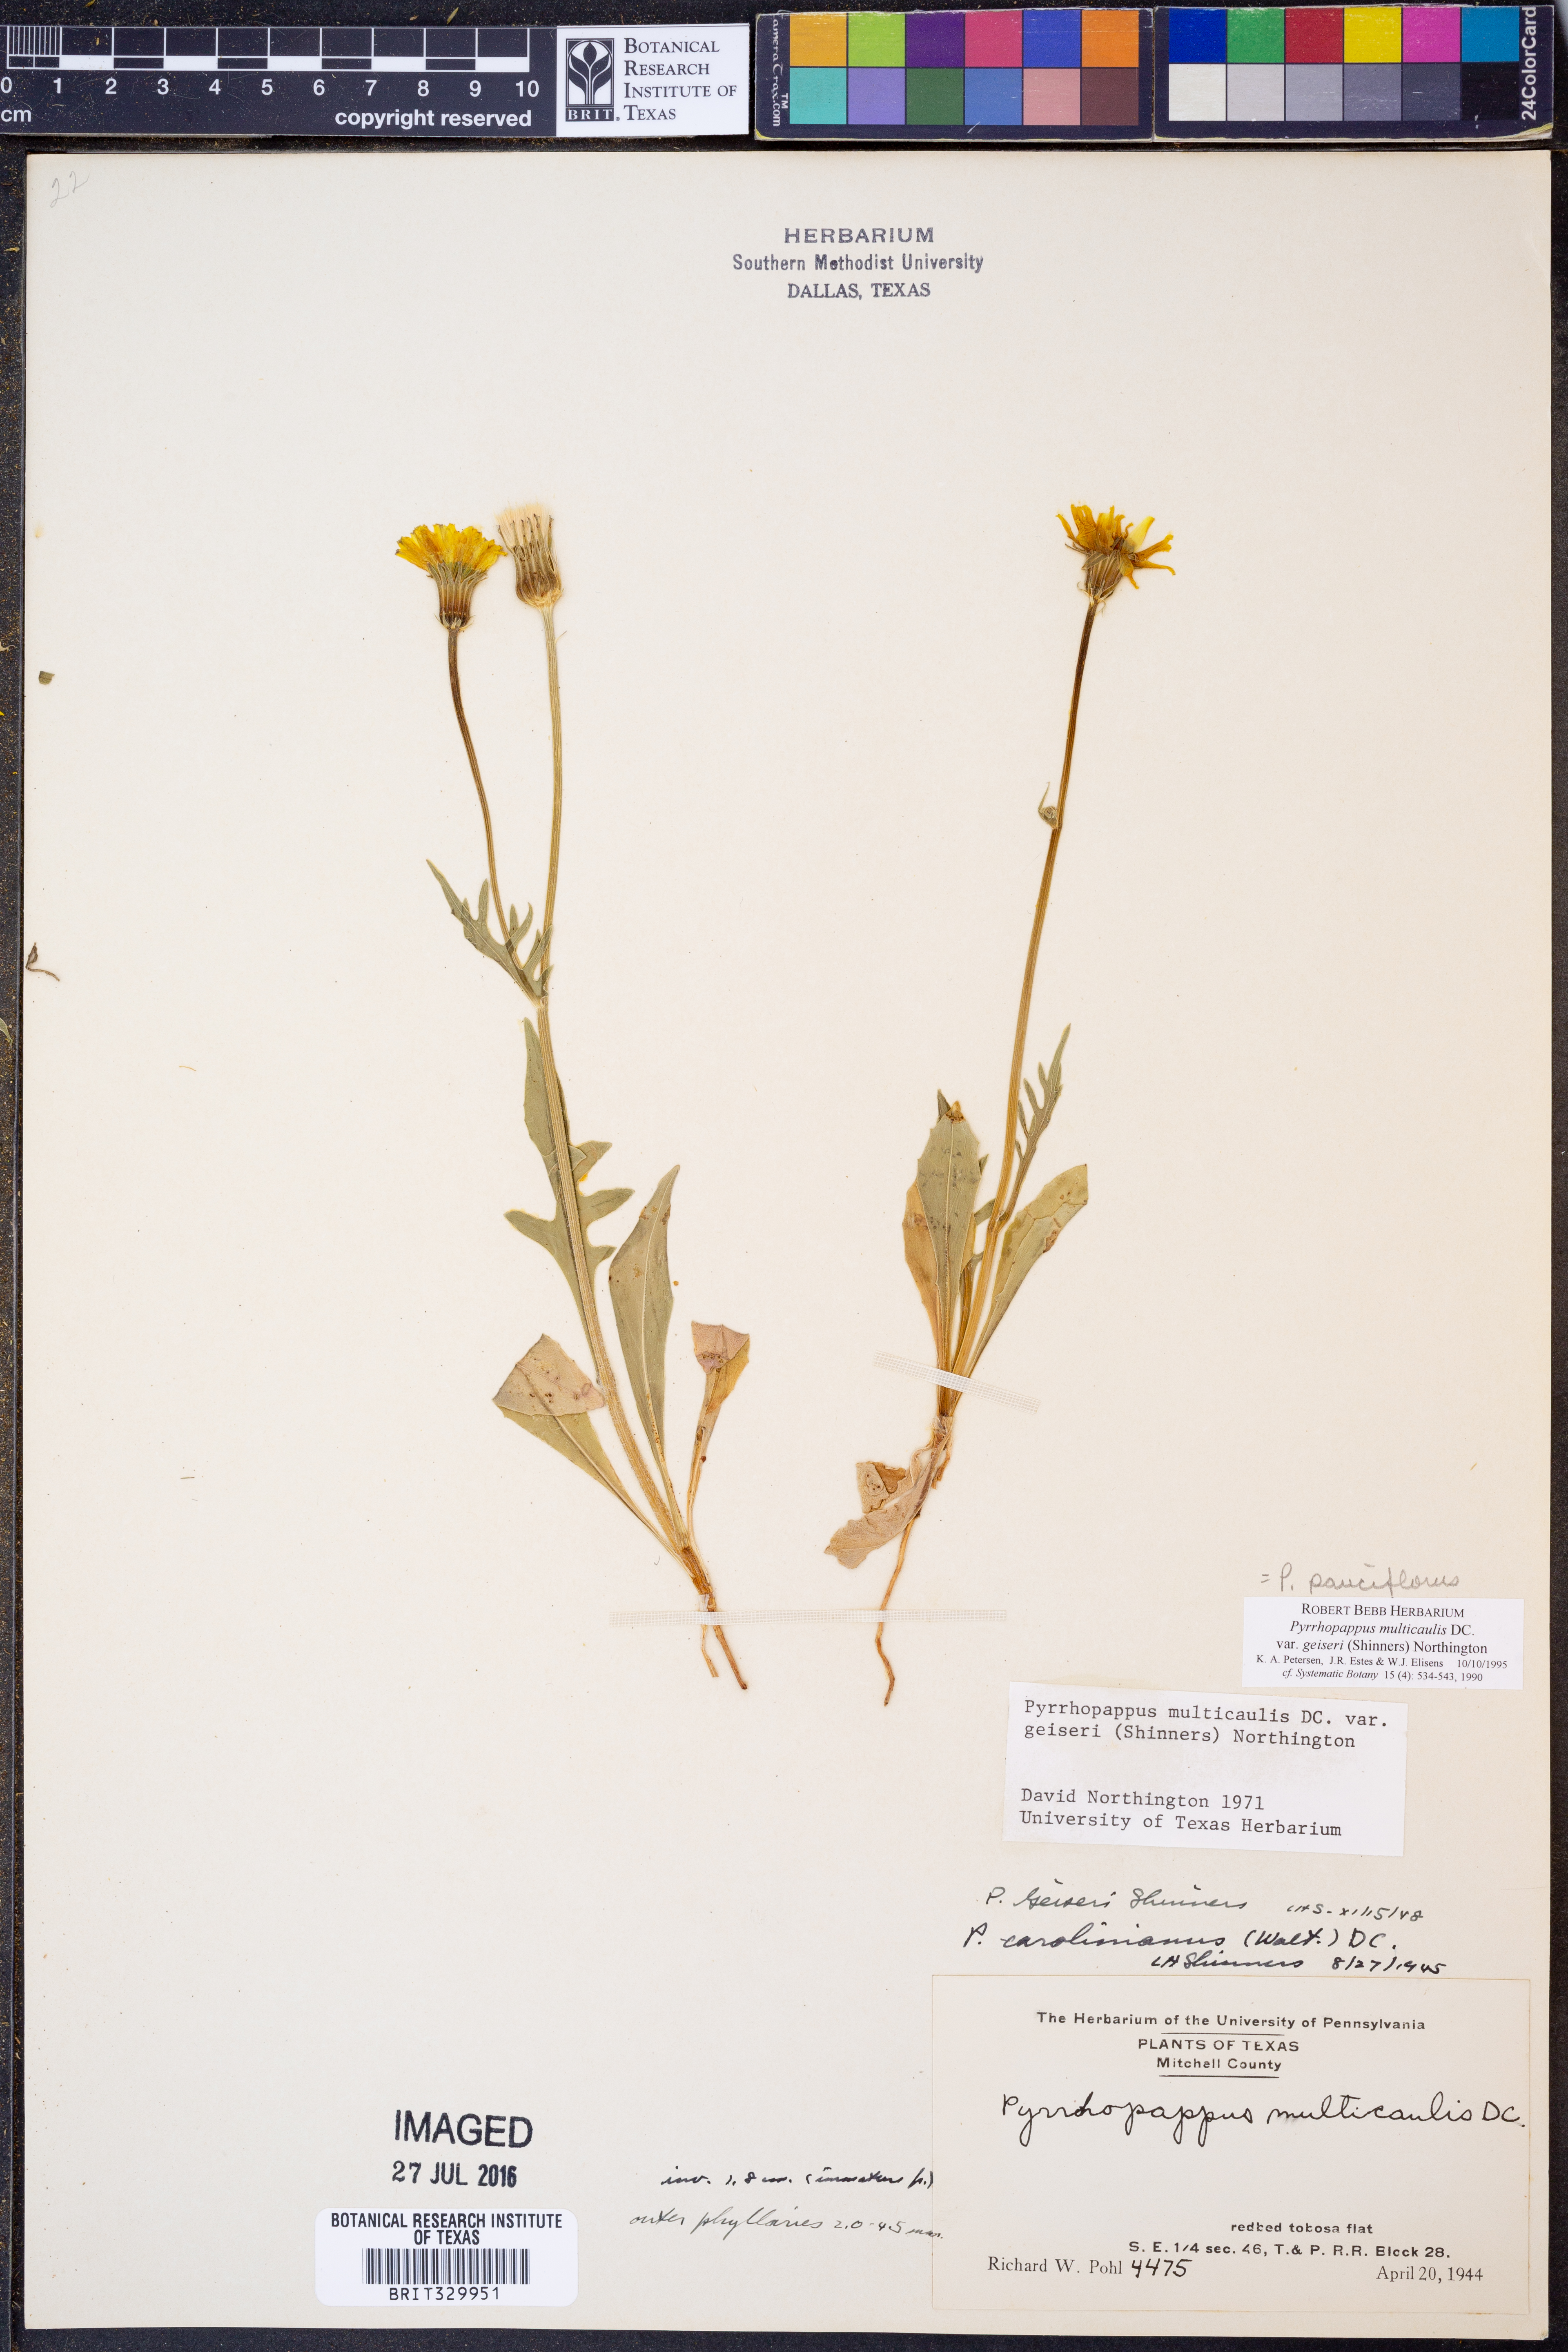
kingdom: Plantae
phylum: Tracheophyta
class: Magnoliopsida
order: Asterales
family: Asteraceae
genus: Pyrrhopappus
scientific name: Pyrrhopappus pauciflorus
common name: Texas false dandelion
